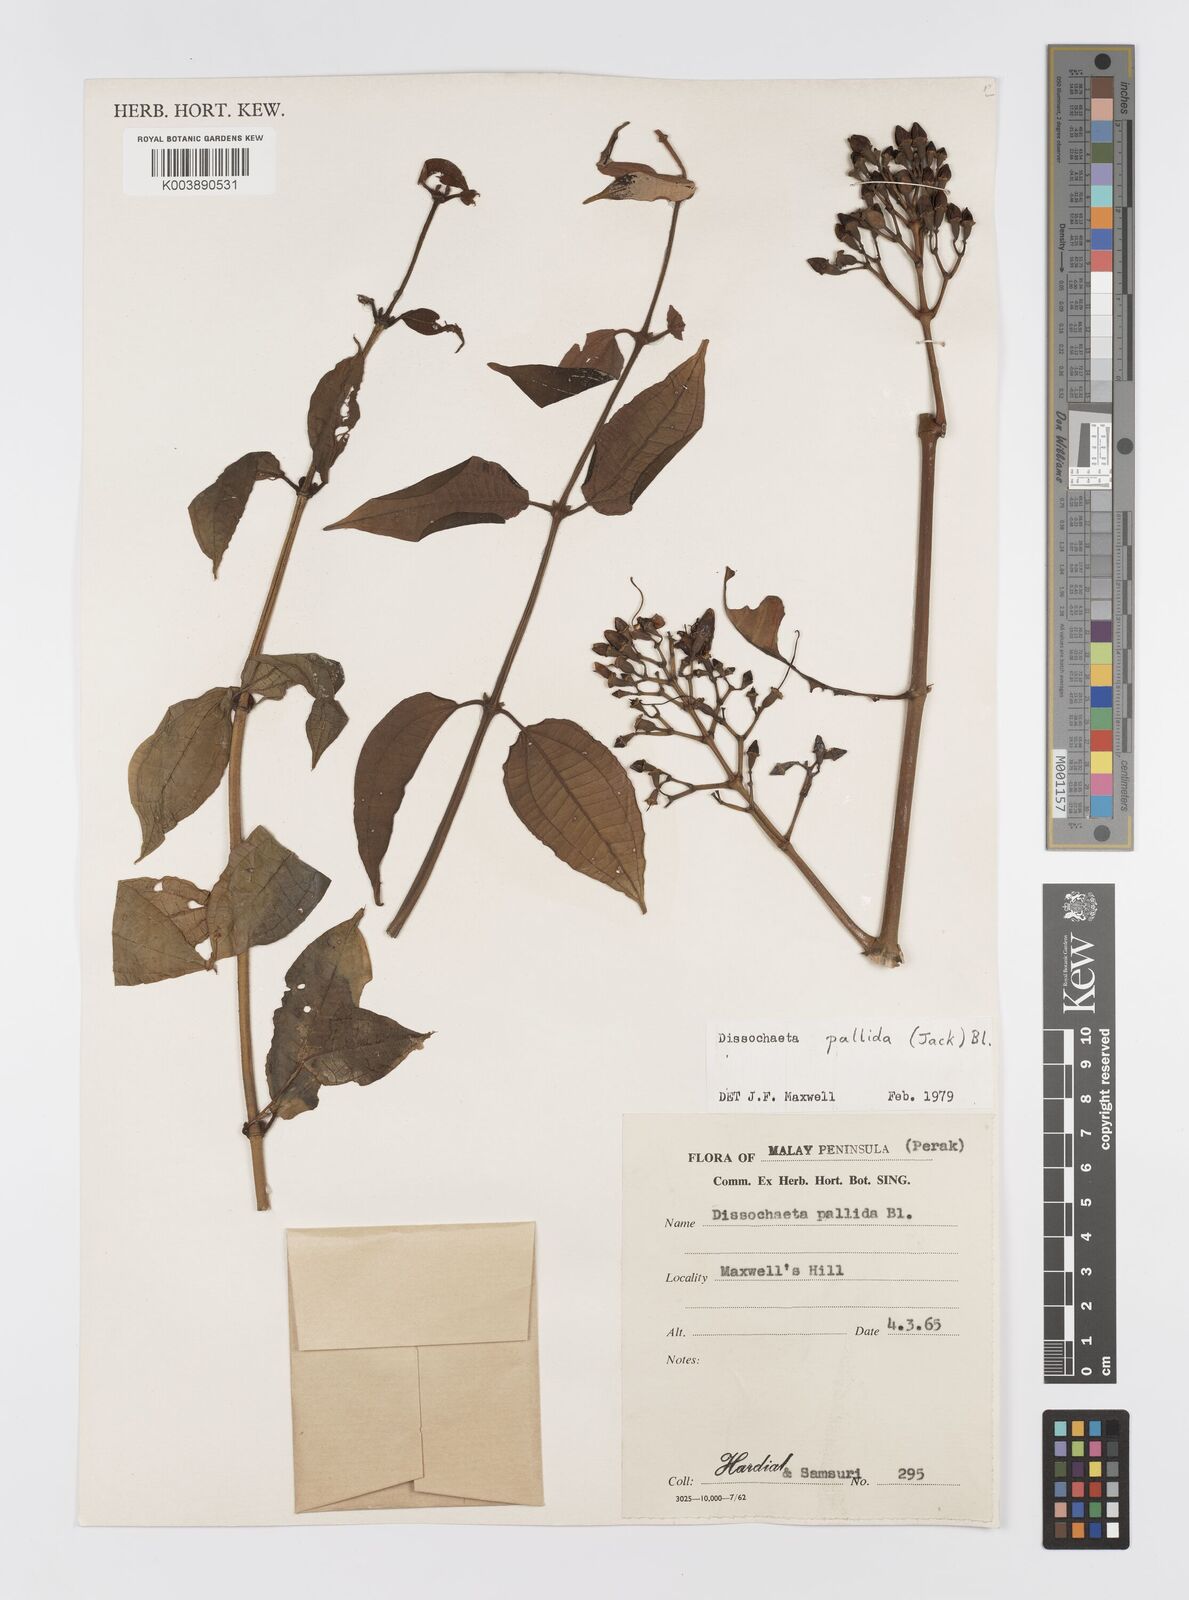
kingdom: Plantae
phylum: Tracheophyta
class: Magnoliopsida
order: Myrtales
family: Melastomataceae
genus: Dissochaeta
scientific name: Dissochaeta pallida
